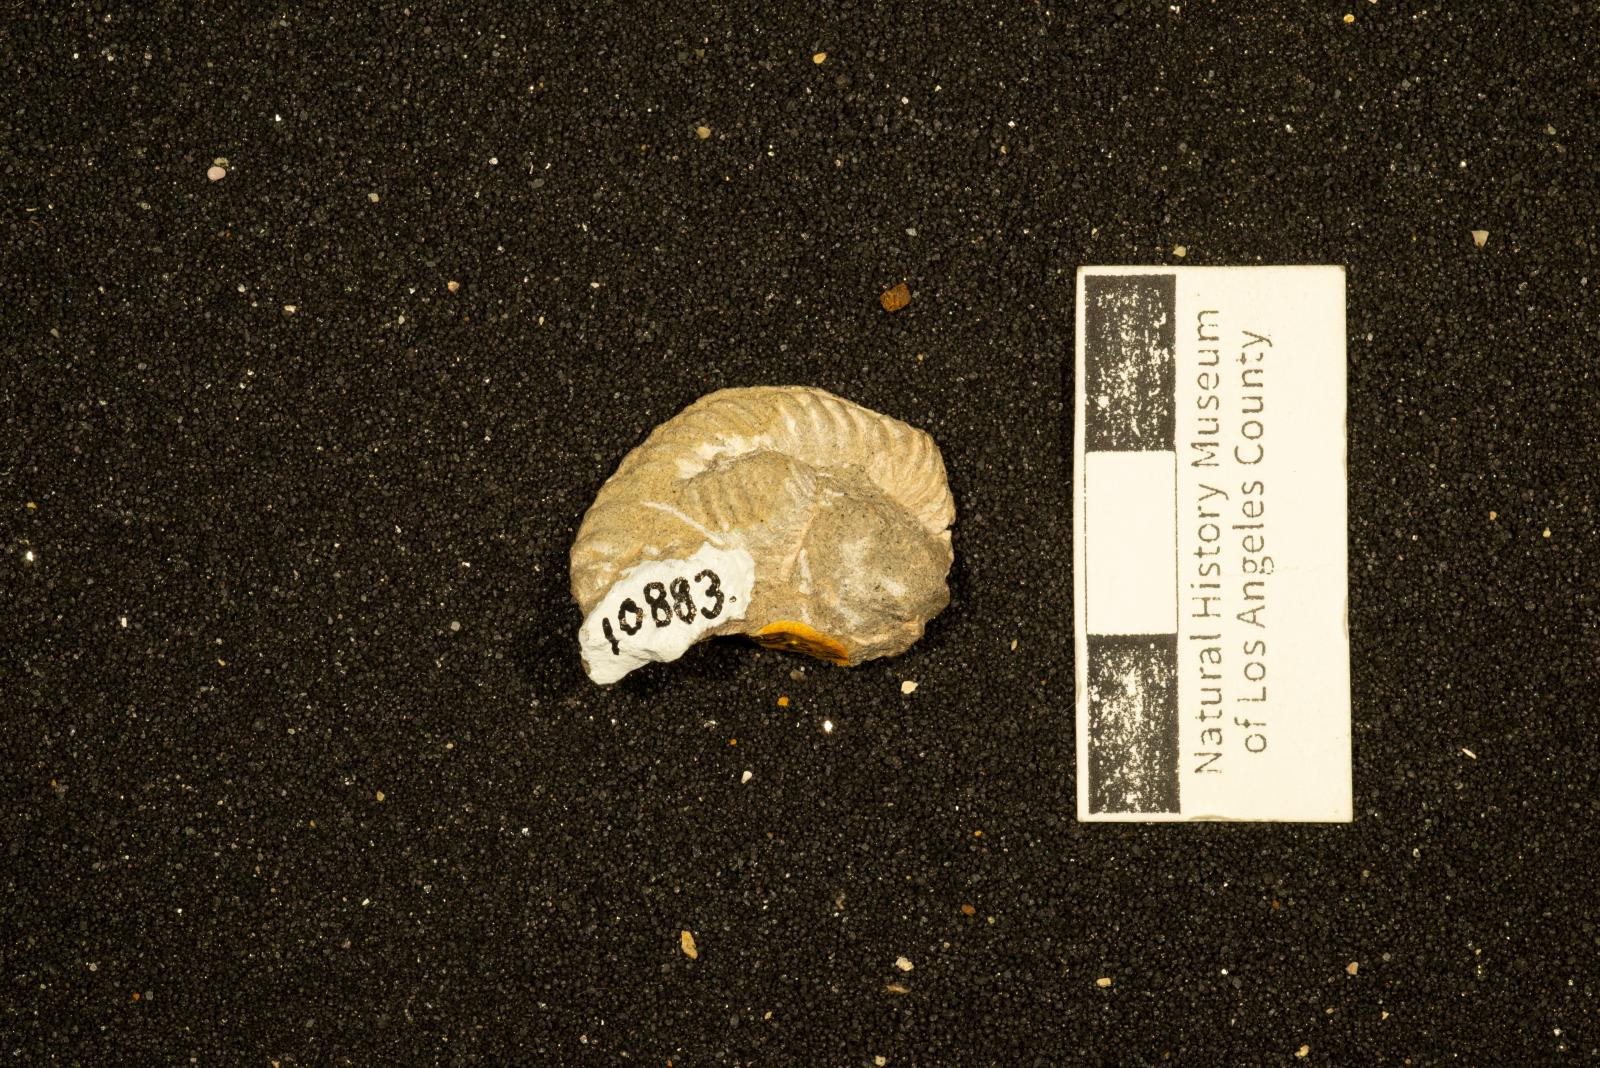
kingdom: Animalia
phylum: Mollusca
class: Cephalopoda
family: Collignoniceratidae
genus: Subprionocyclus
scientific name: Subprionocyclus
